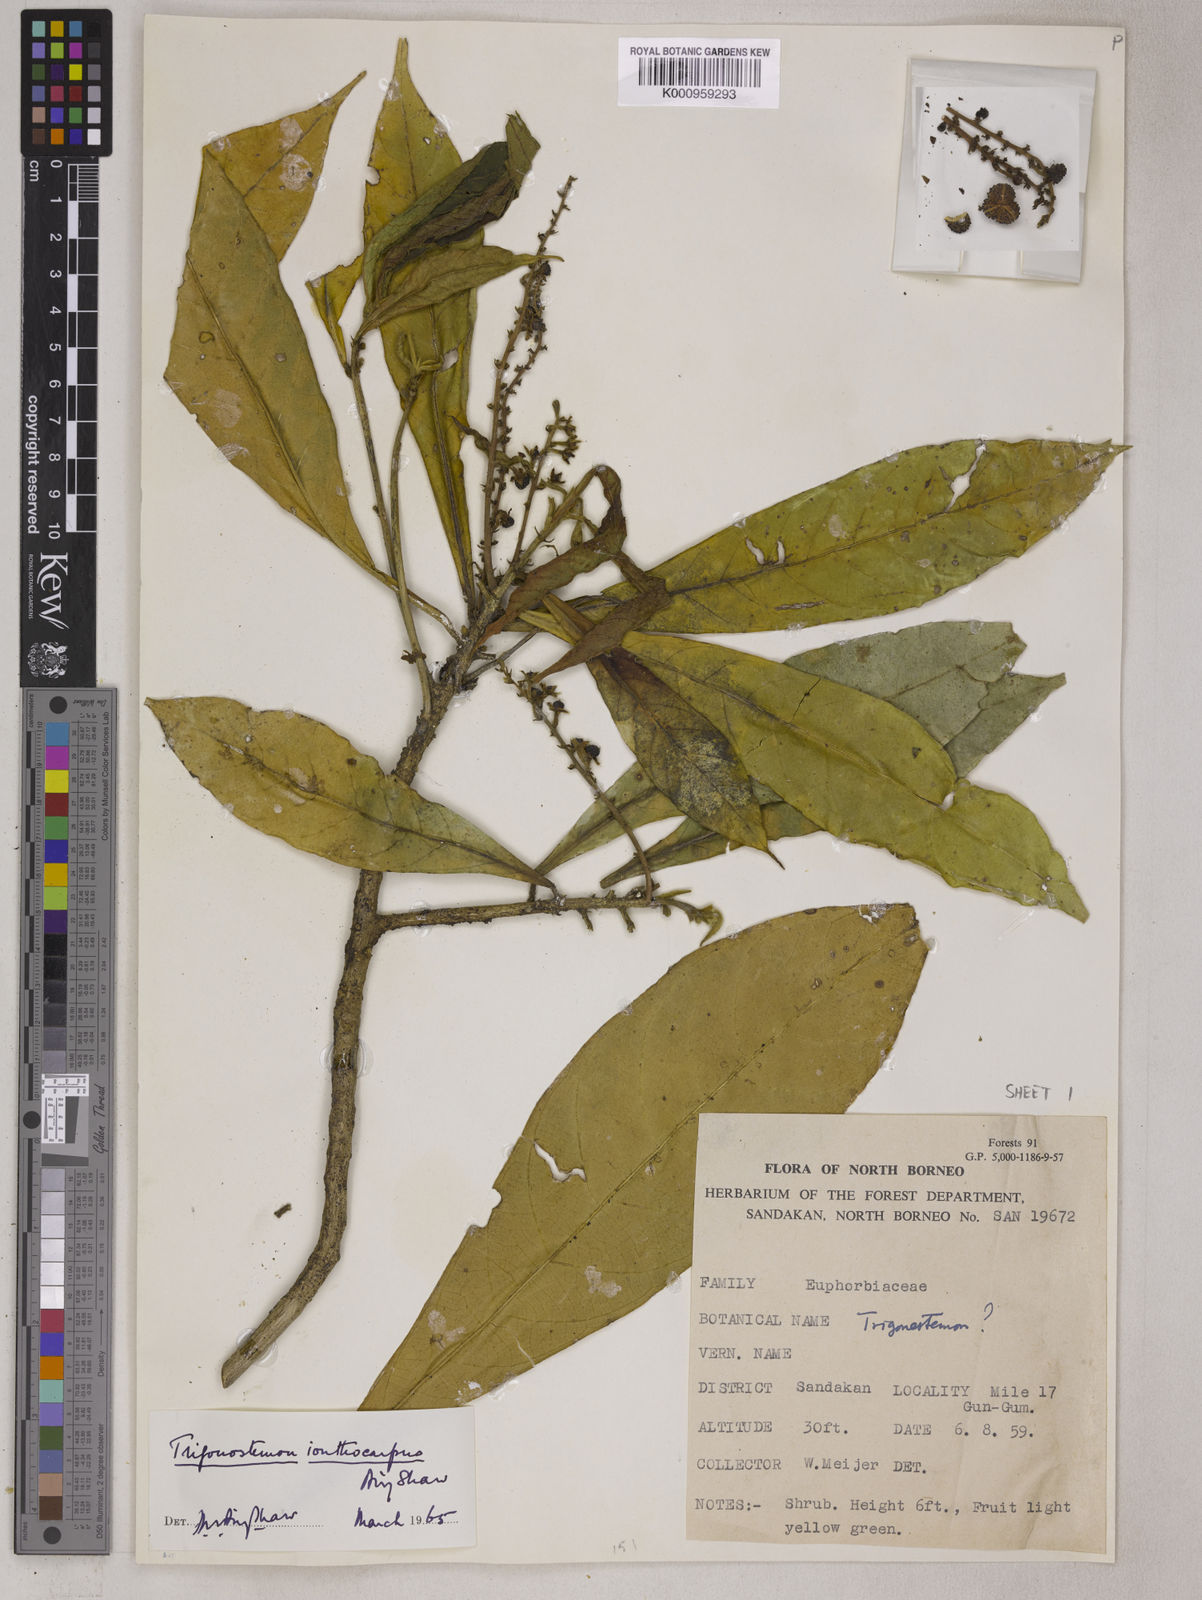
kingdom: Plantae
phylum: Tracheophyta
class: Magnoliopsida
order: Malpighiales
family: Euphorbiaceae
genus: Trigonostemon
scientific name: Trigonostemon longifolius
